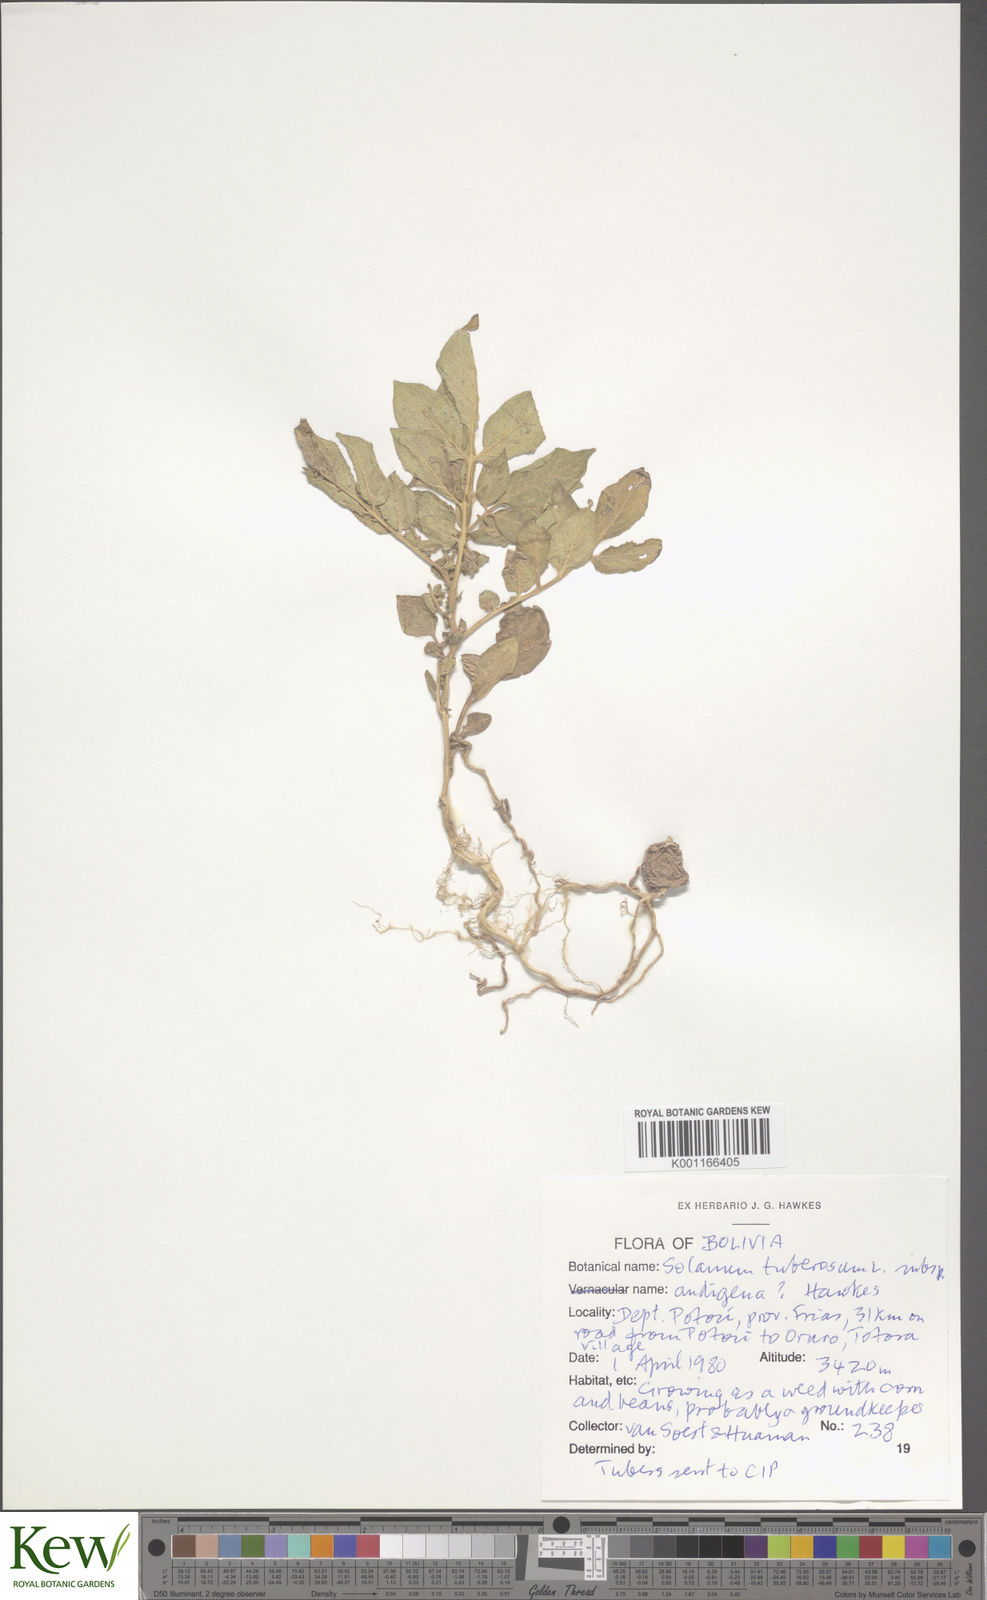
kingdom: Plantae
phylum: Tracheophyta
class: Magnoliopsida
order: Solanales
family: Solanaceae
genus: Solanum
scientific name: Solanum tuberosum
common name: Potato
